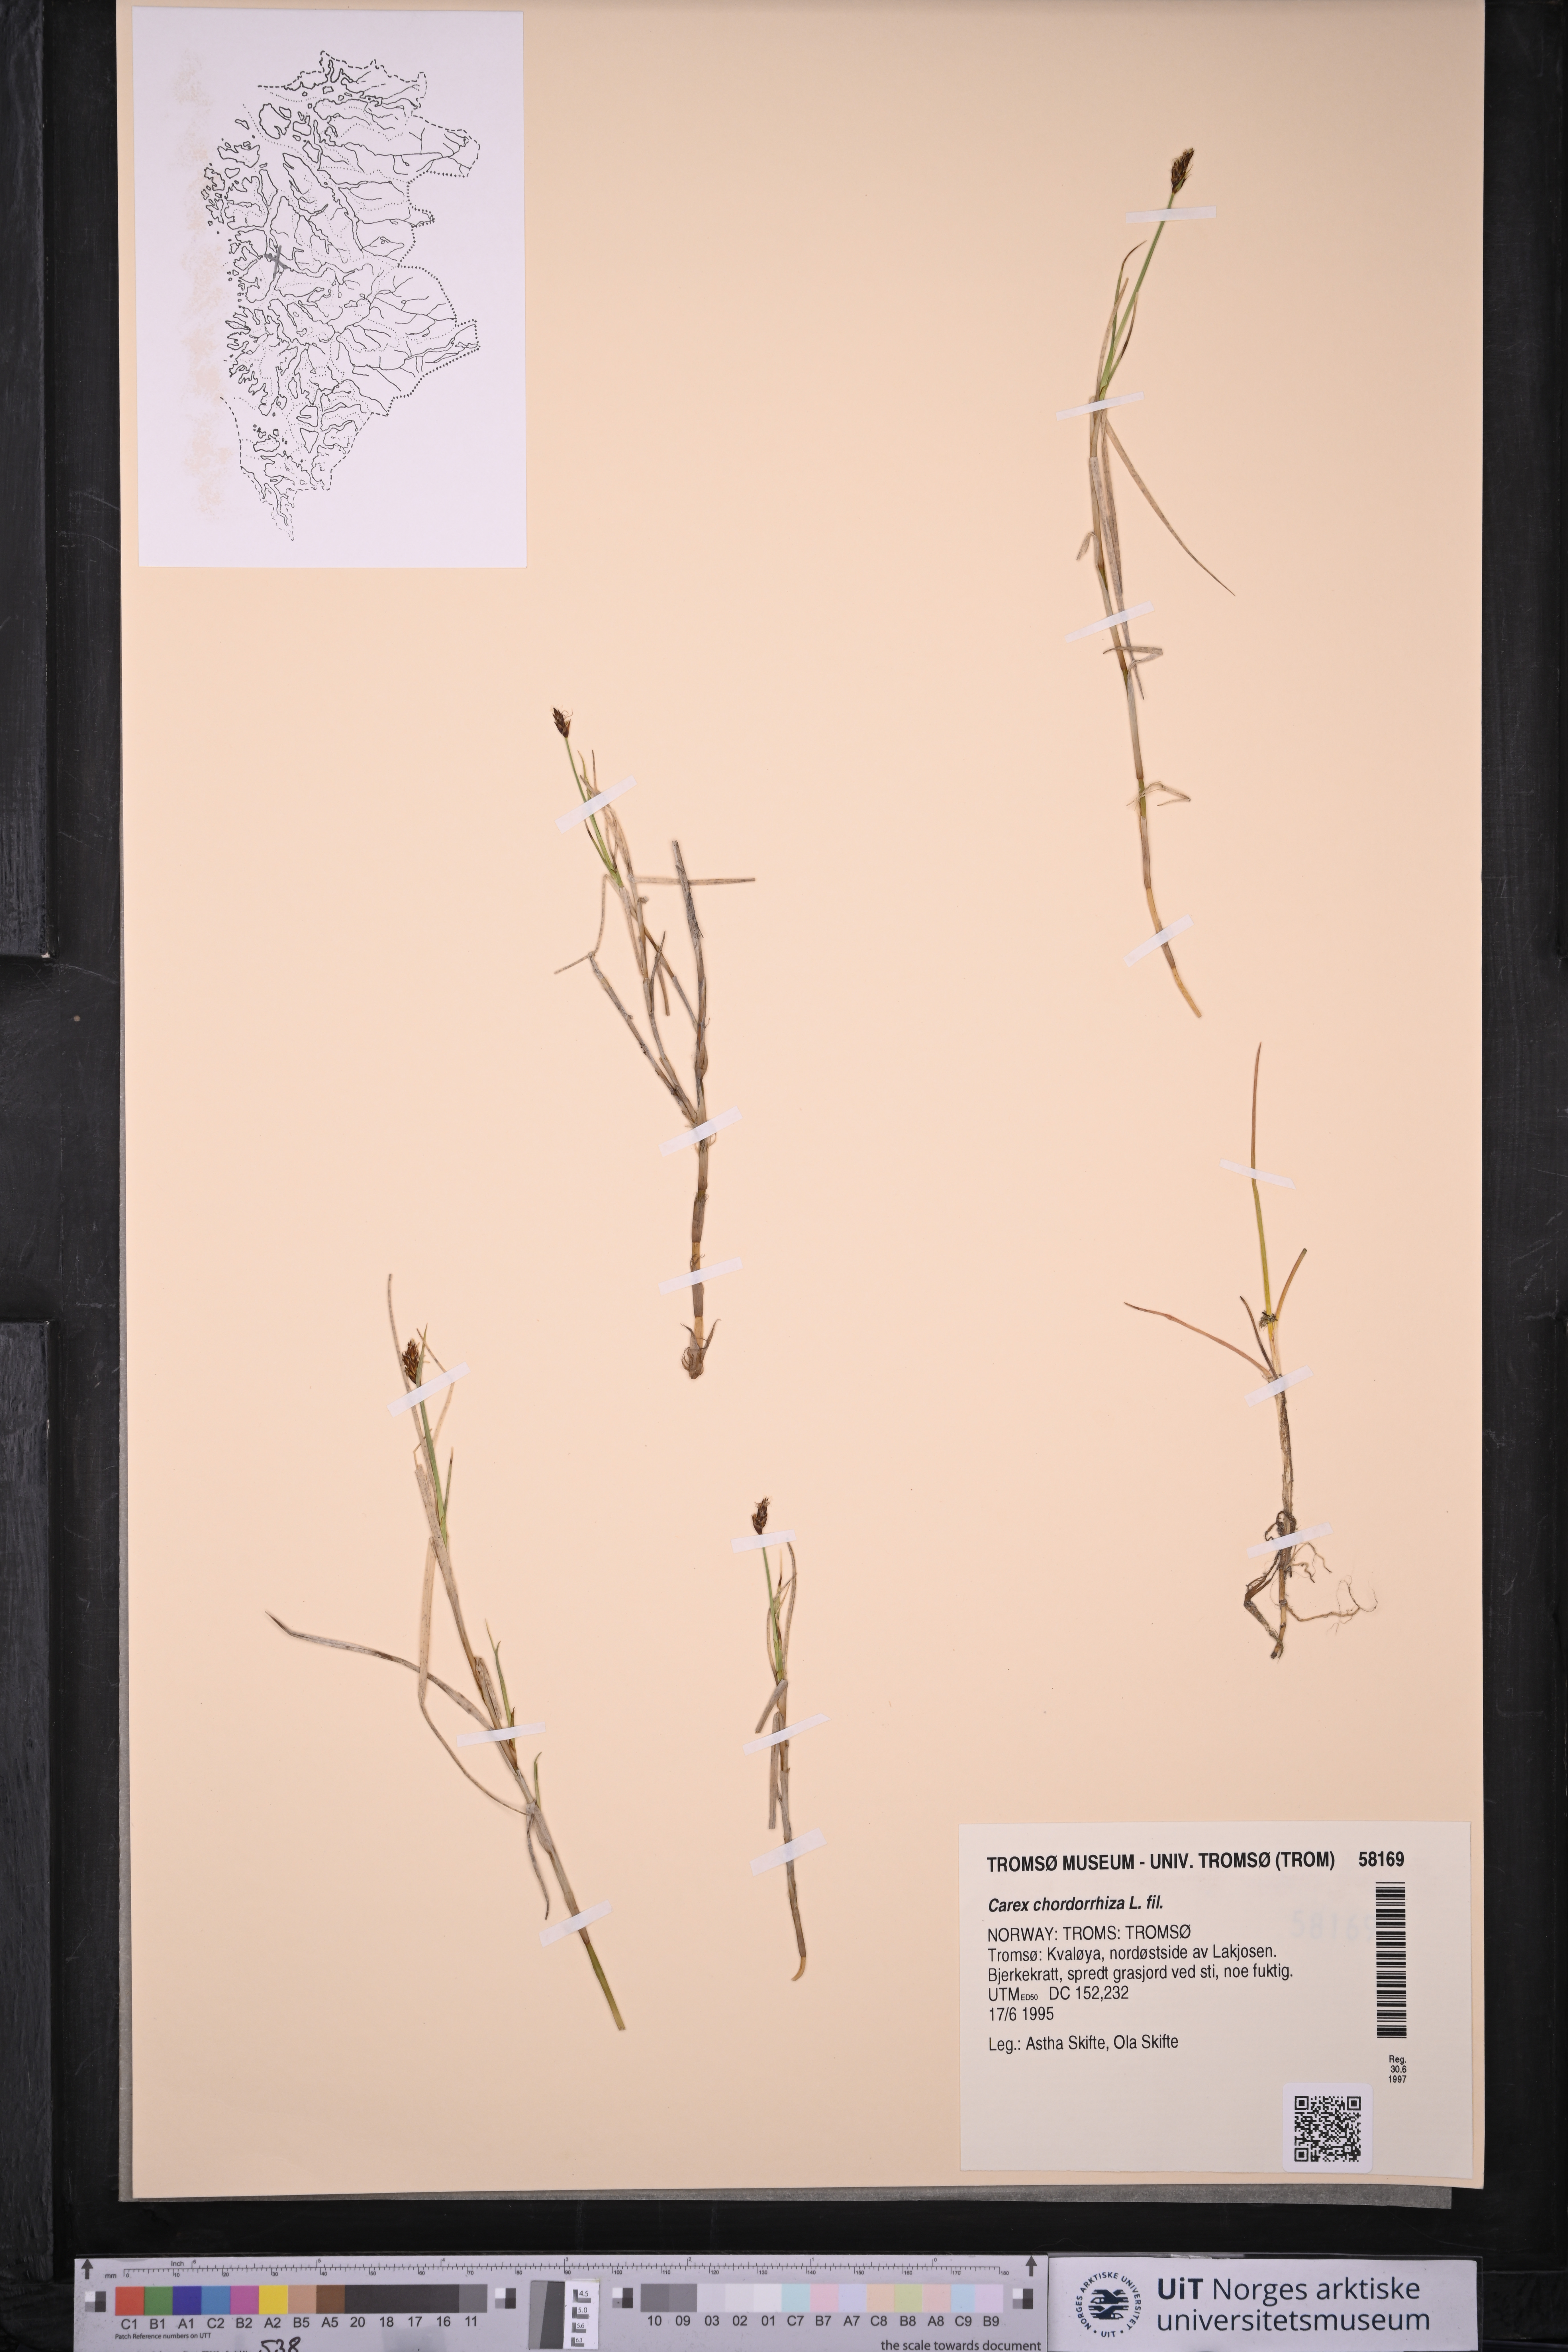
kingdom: Plantae
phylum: Tracheophyta
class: Liliopsida
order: Poales
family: Cyperaceae
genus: Carex
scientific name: Carex chordorrhiza
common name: String sedge
